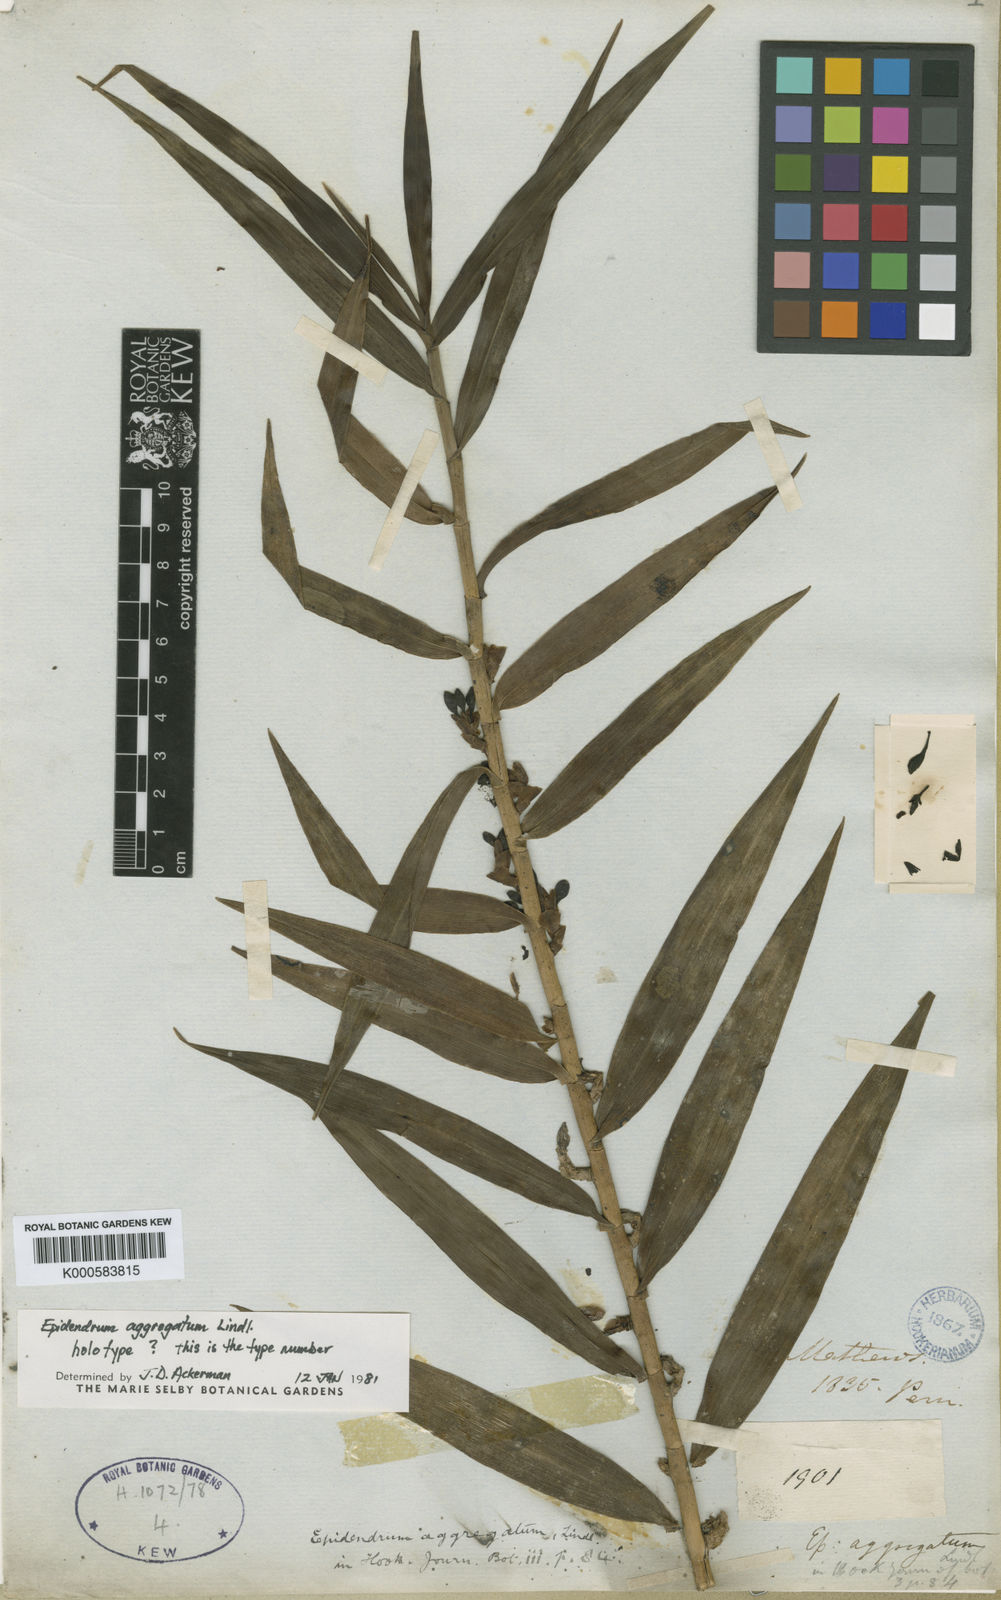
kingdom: Plantae
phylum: Tracheophyta
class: Liliopsida
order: Asparagales
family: Orchidaceae
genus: Epidendrum
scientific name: Epidendrum aggregatum
